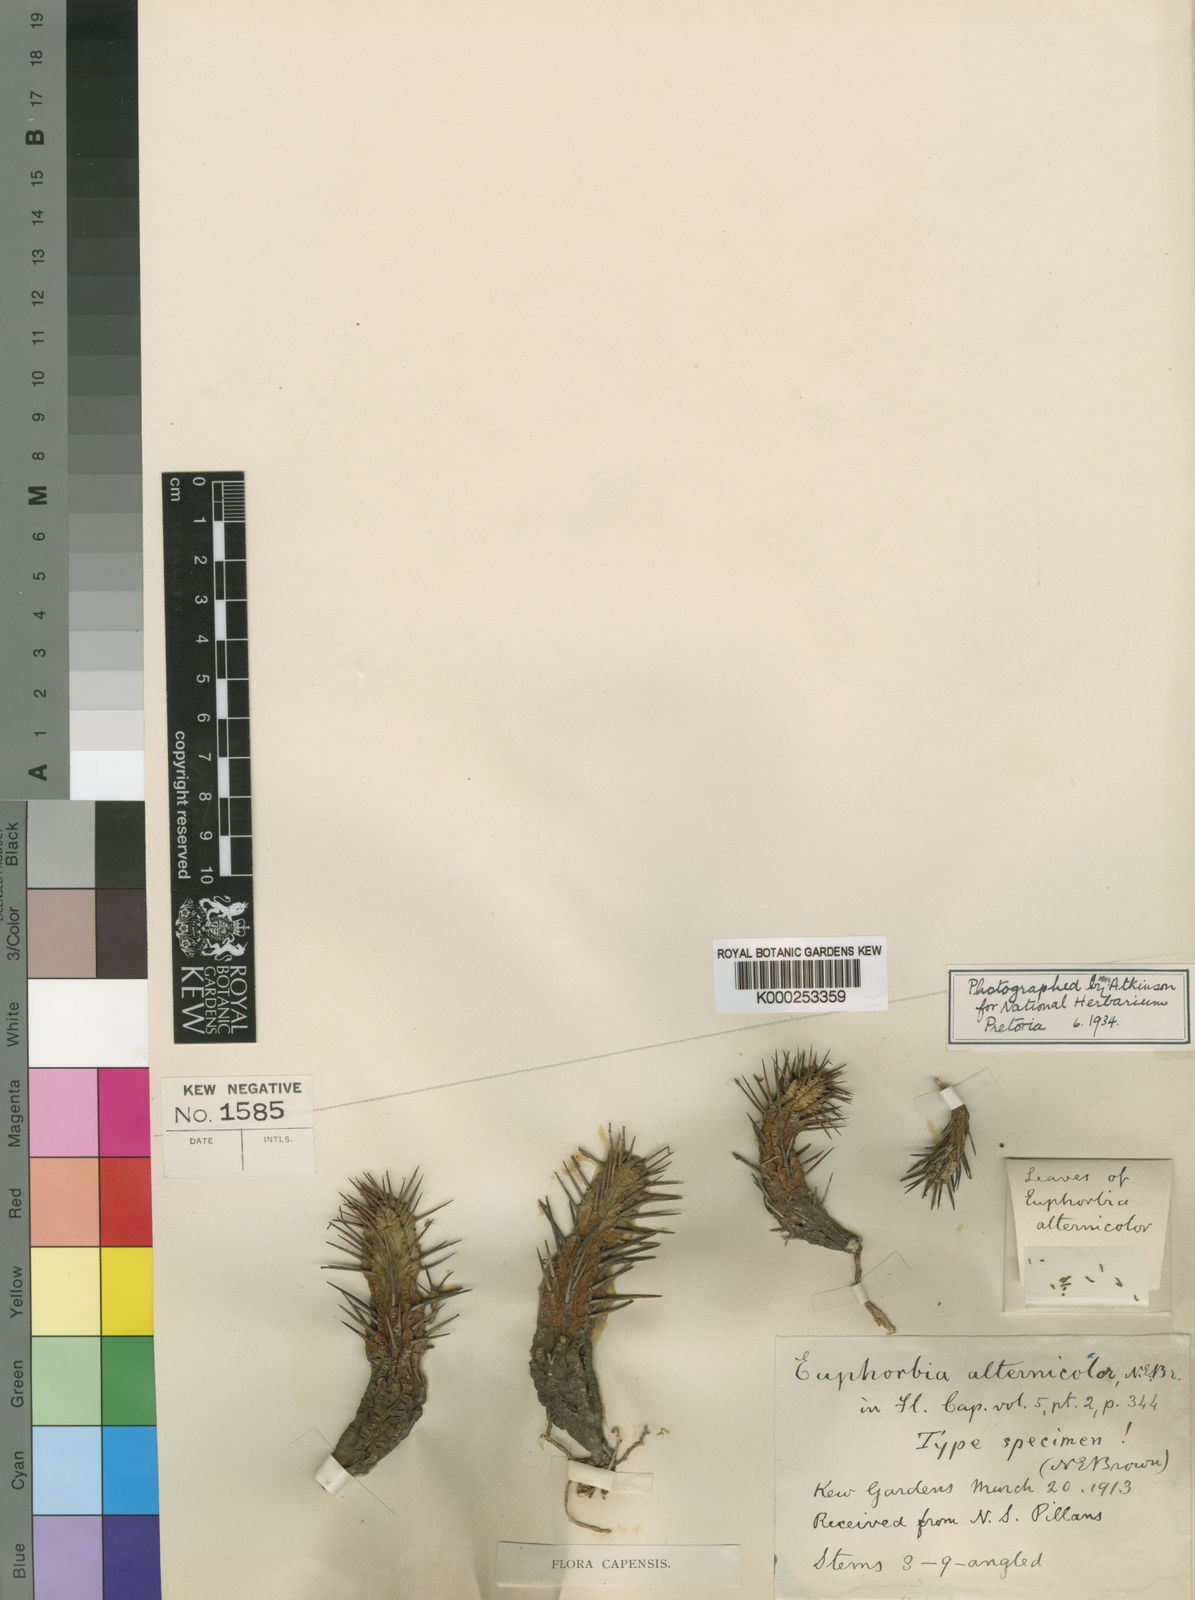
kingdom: Plantae
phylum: Tracheophyta
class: Magnoliopsida
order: Malpighiales
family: Euphorbiaceae
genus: Euphorbia
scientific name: Euphorbia ferox
